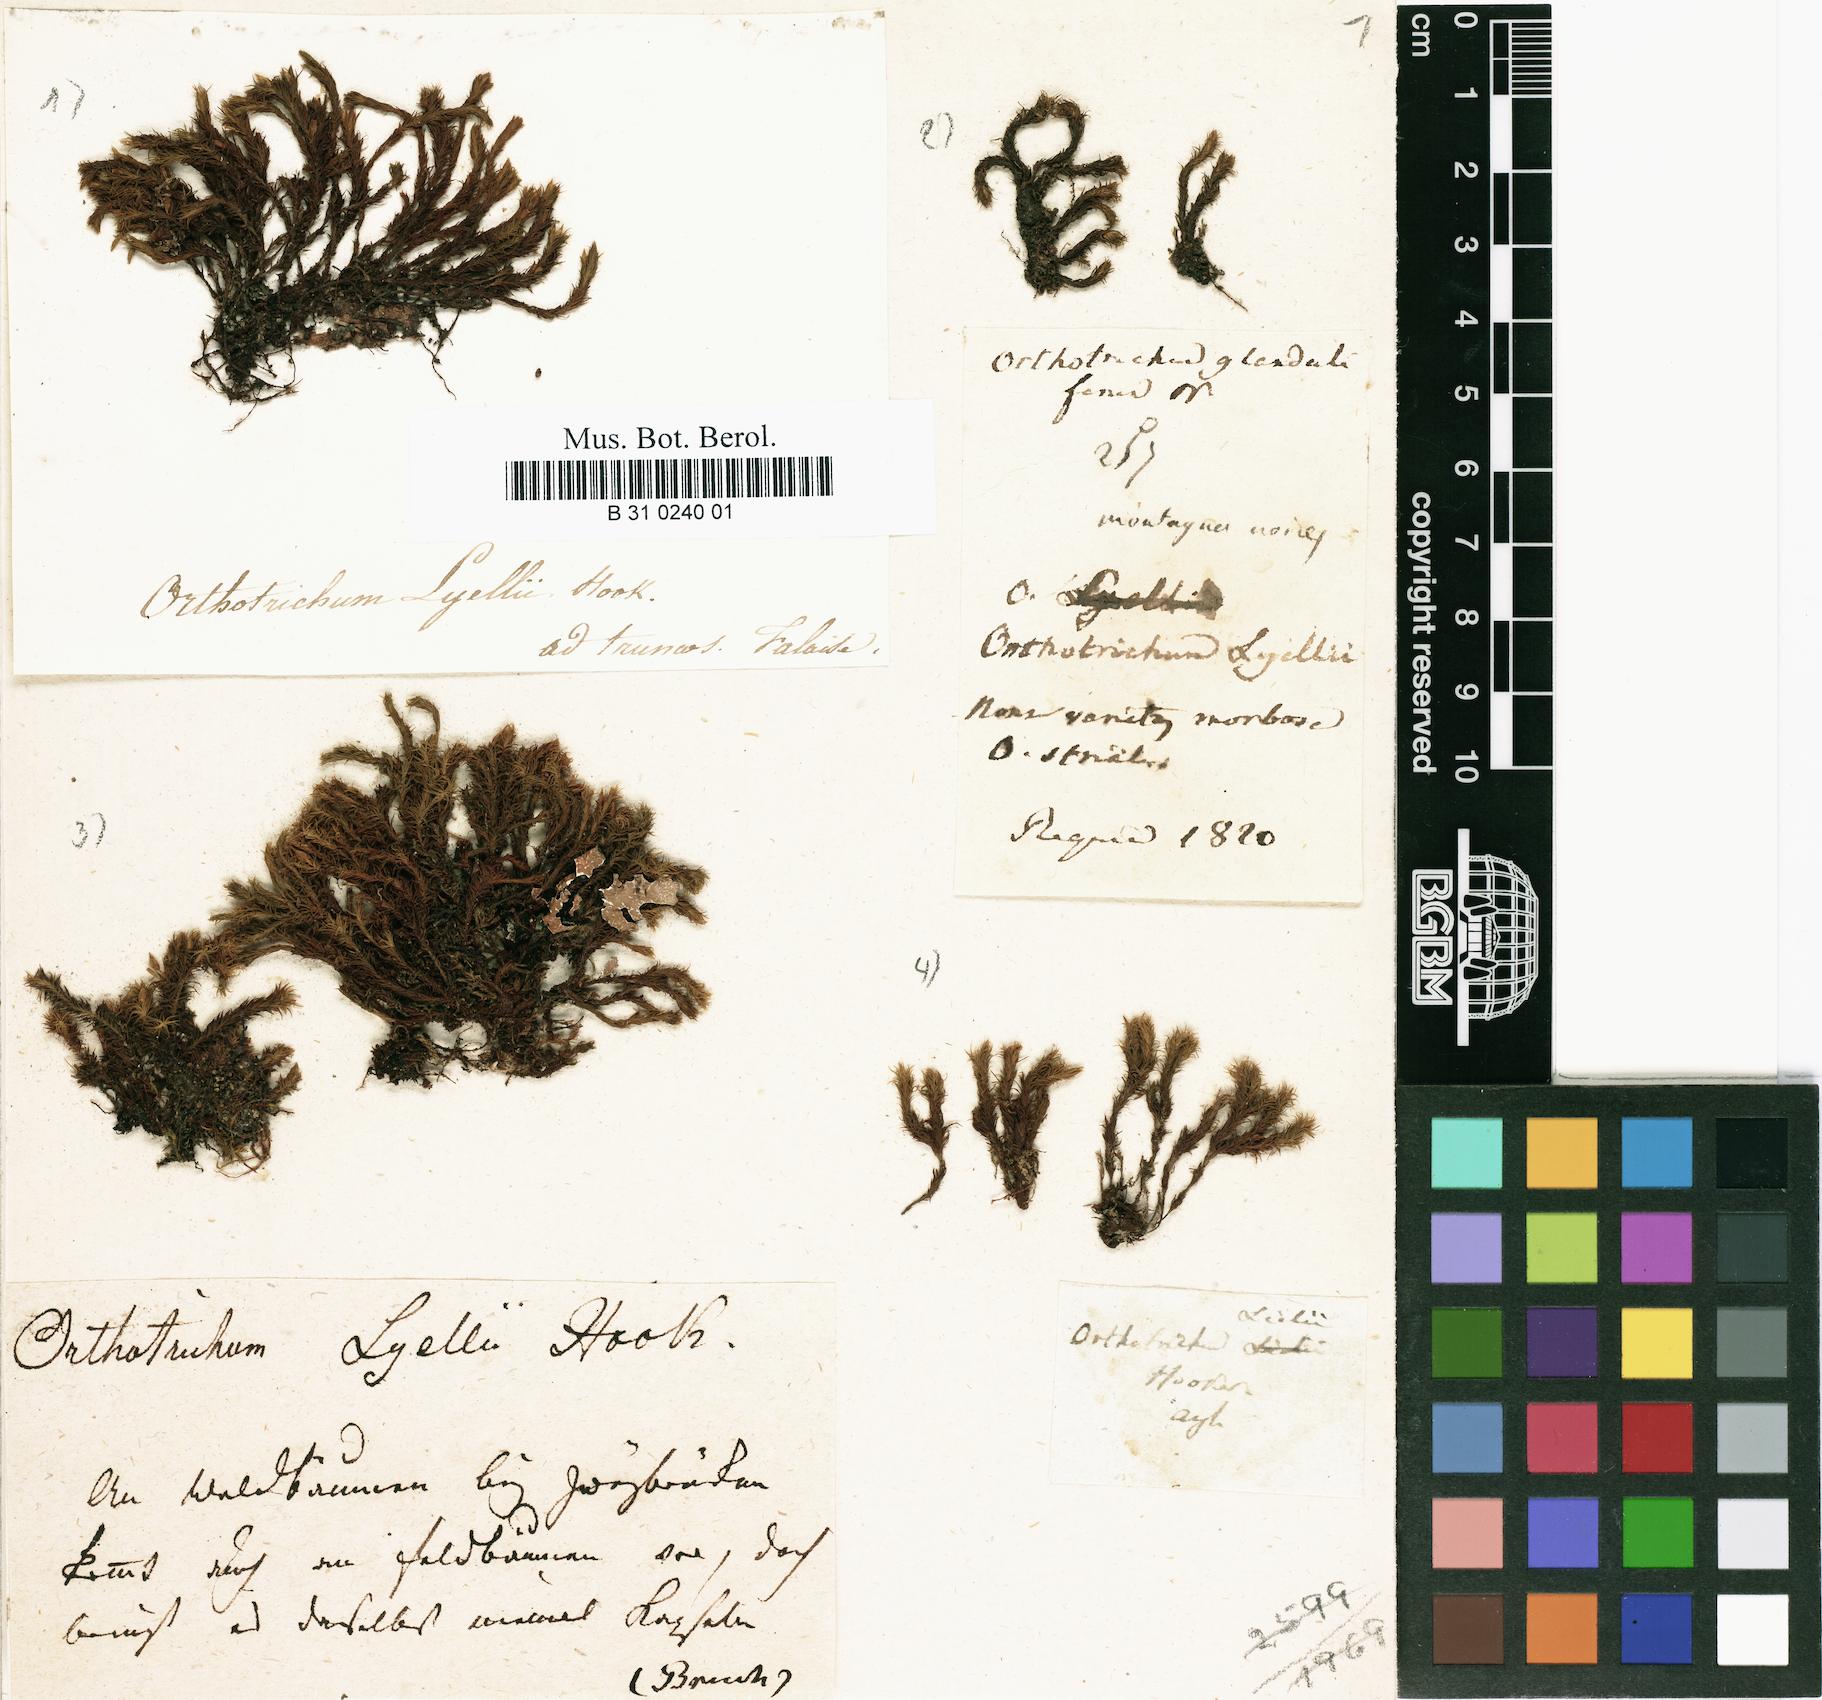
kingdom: Plantae
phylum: Bryophyta
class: Bryopsida
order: Orthotrichales
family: Orthotrichaceae
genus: Pulvigera
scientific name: Pulvigera lyellii
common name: Lyell's bristle-moss
